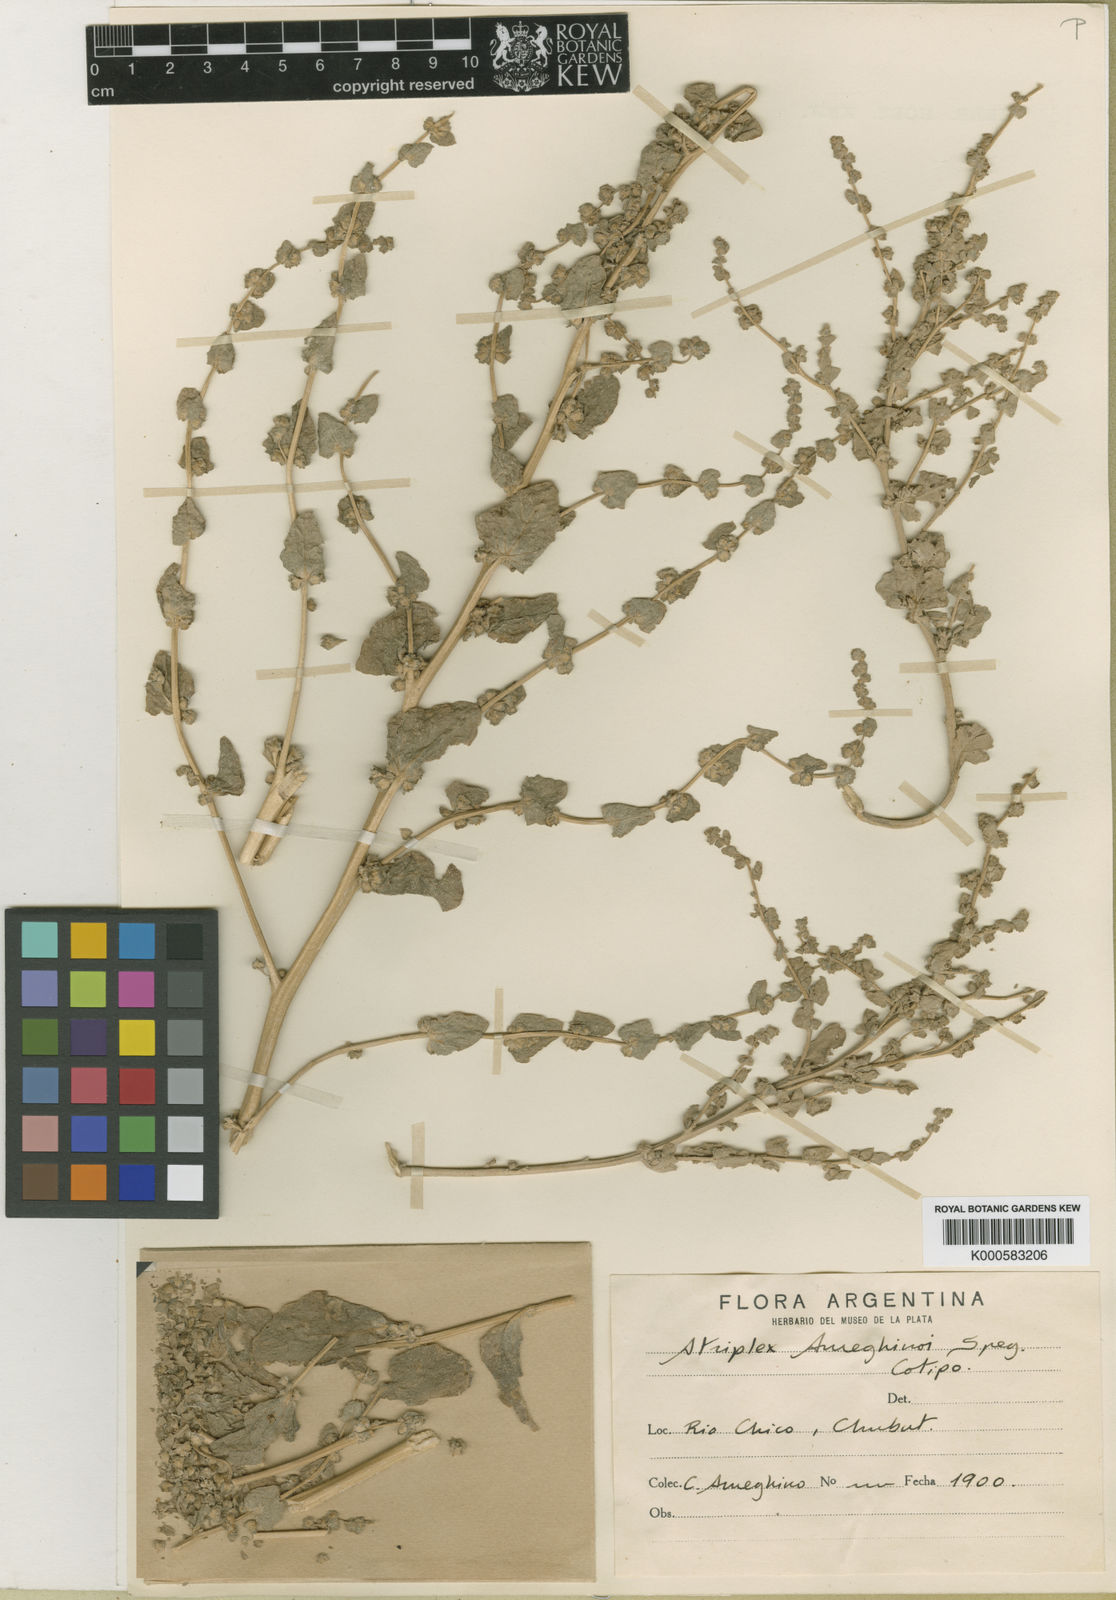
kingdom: Plantae
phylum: Tracheophyta
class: Magnoliopsida
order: Caryophyllales
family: Amaranthaceae
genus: Atriplex
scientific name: Atriplex ameghinoi
